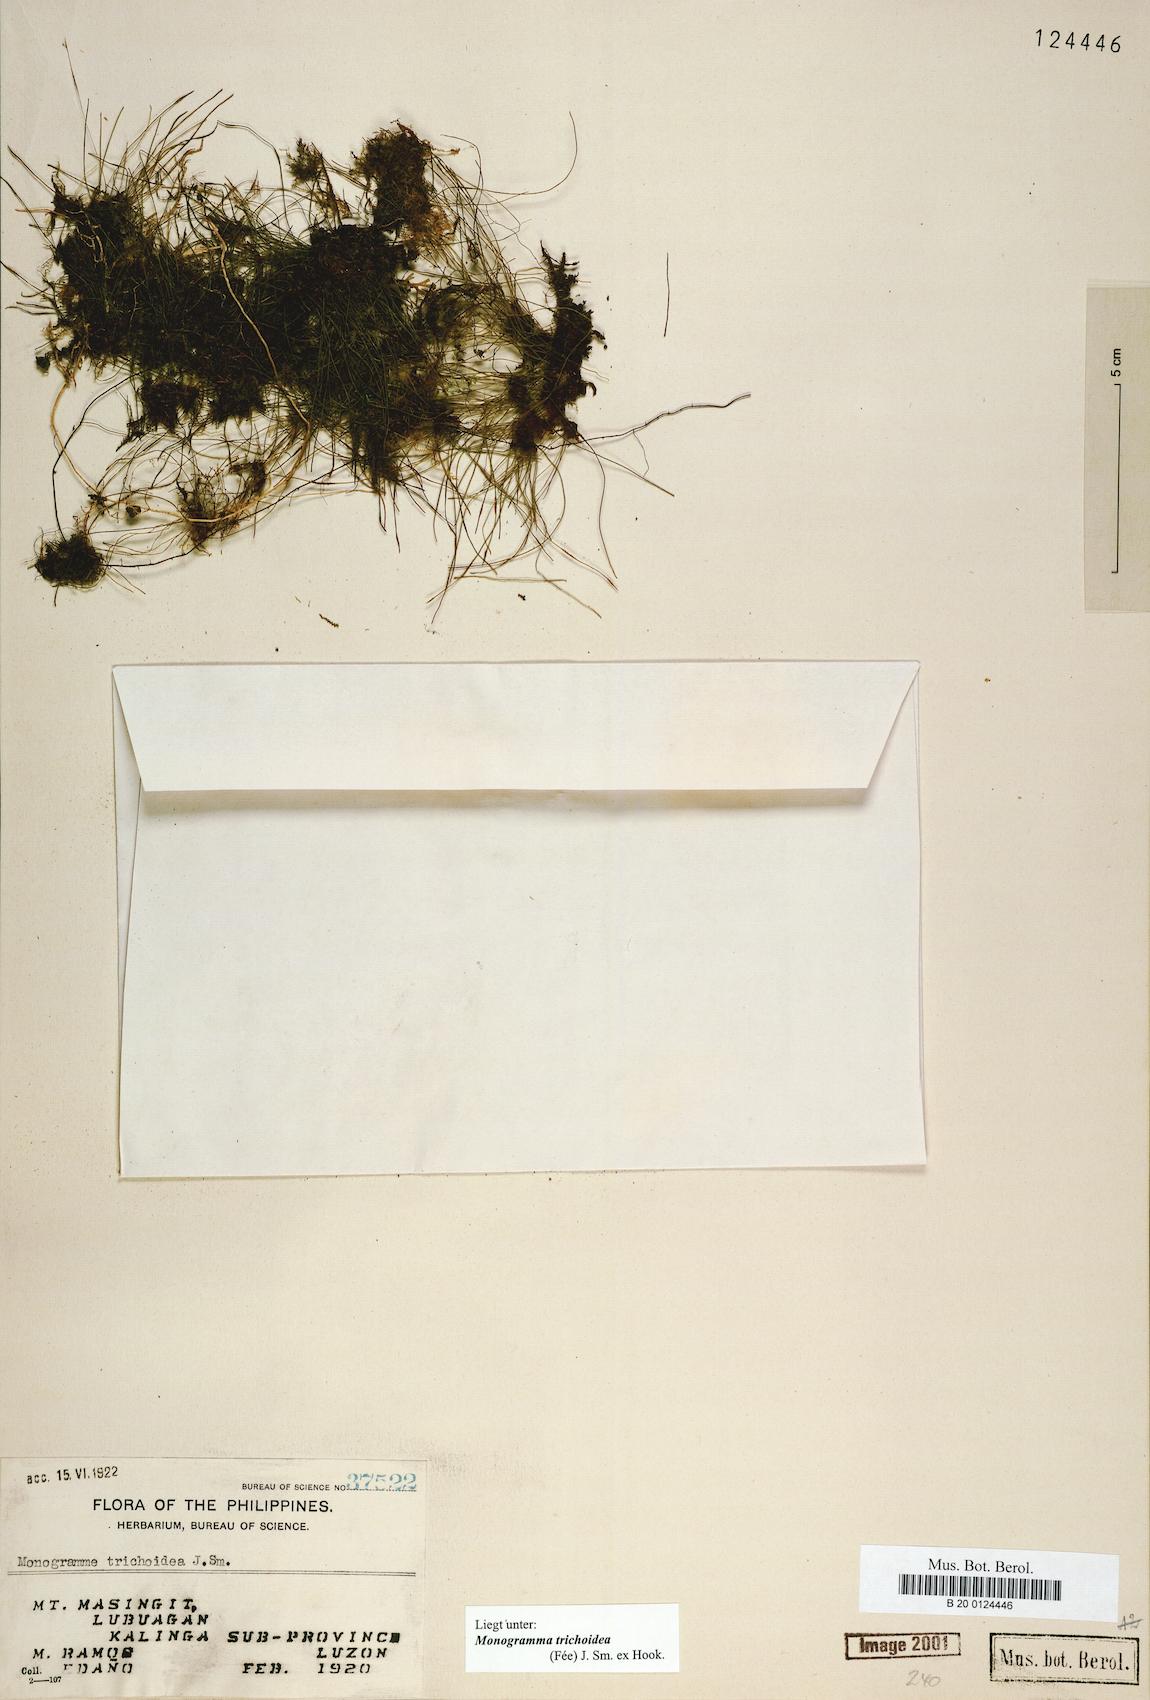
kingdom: Plantae
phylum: Tracheophyta
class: Polypodiopsida
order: Polypodiales
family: Pteridaceae
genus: Vaginularia
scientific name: Vaginularia trichoidea
